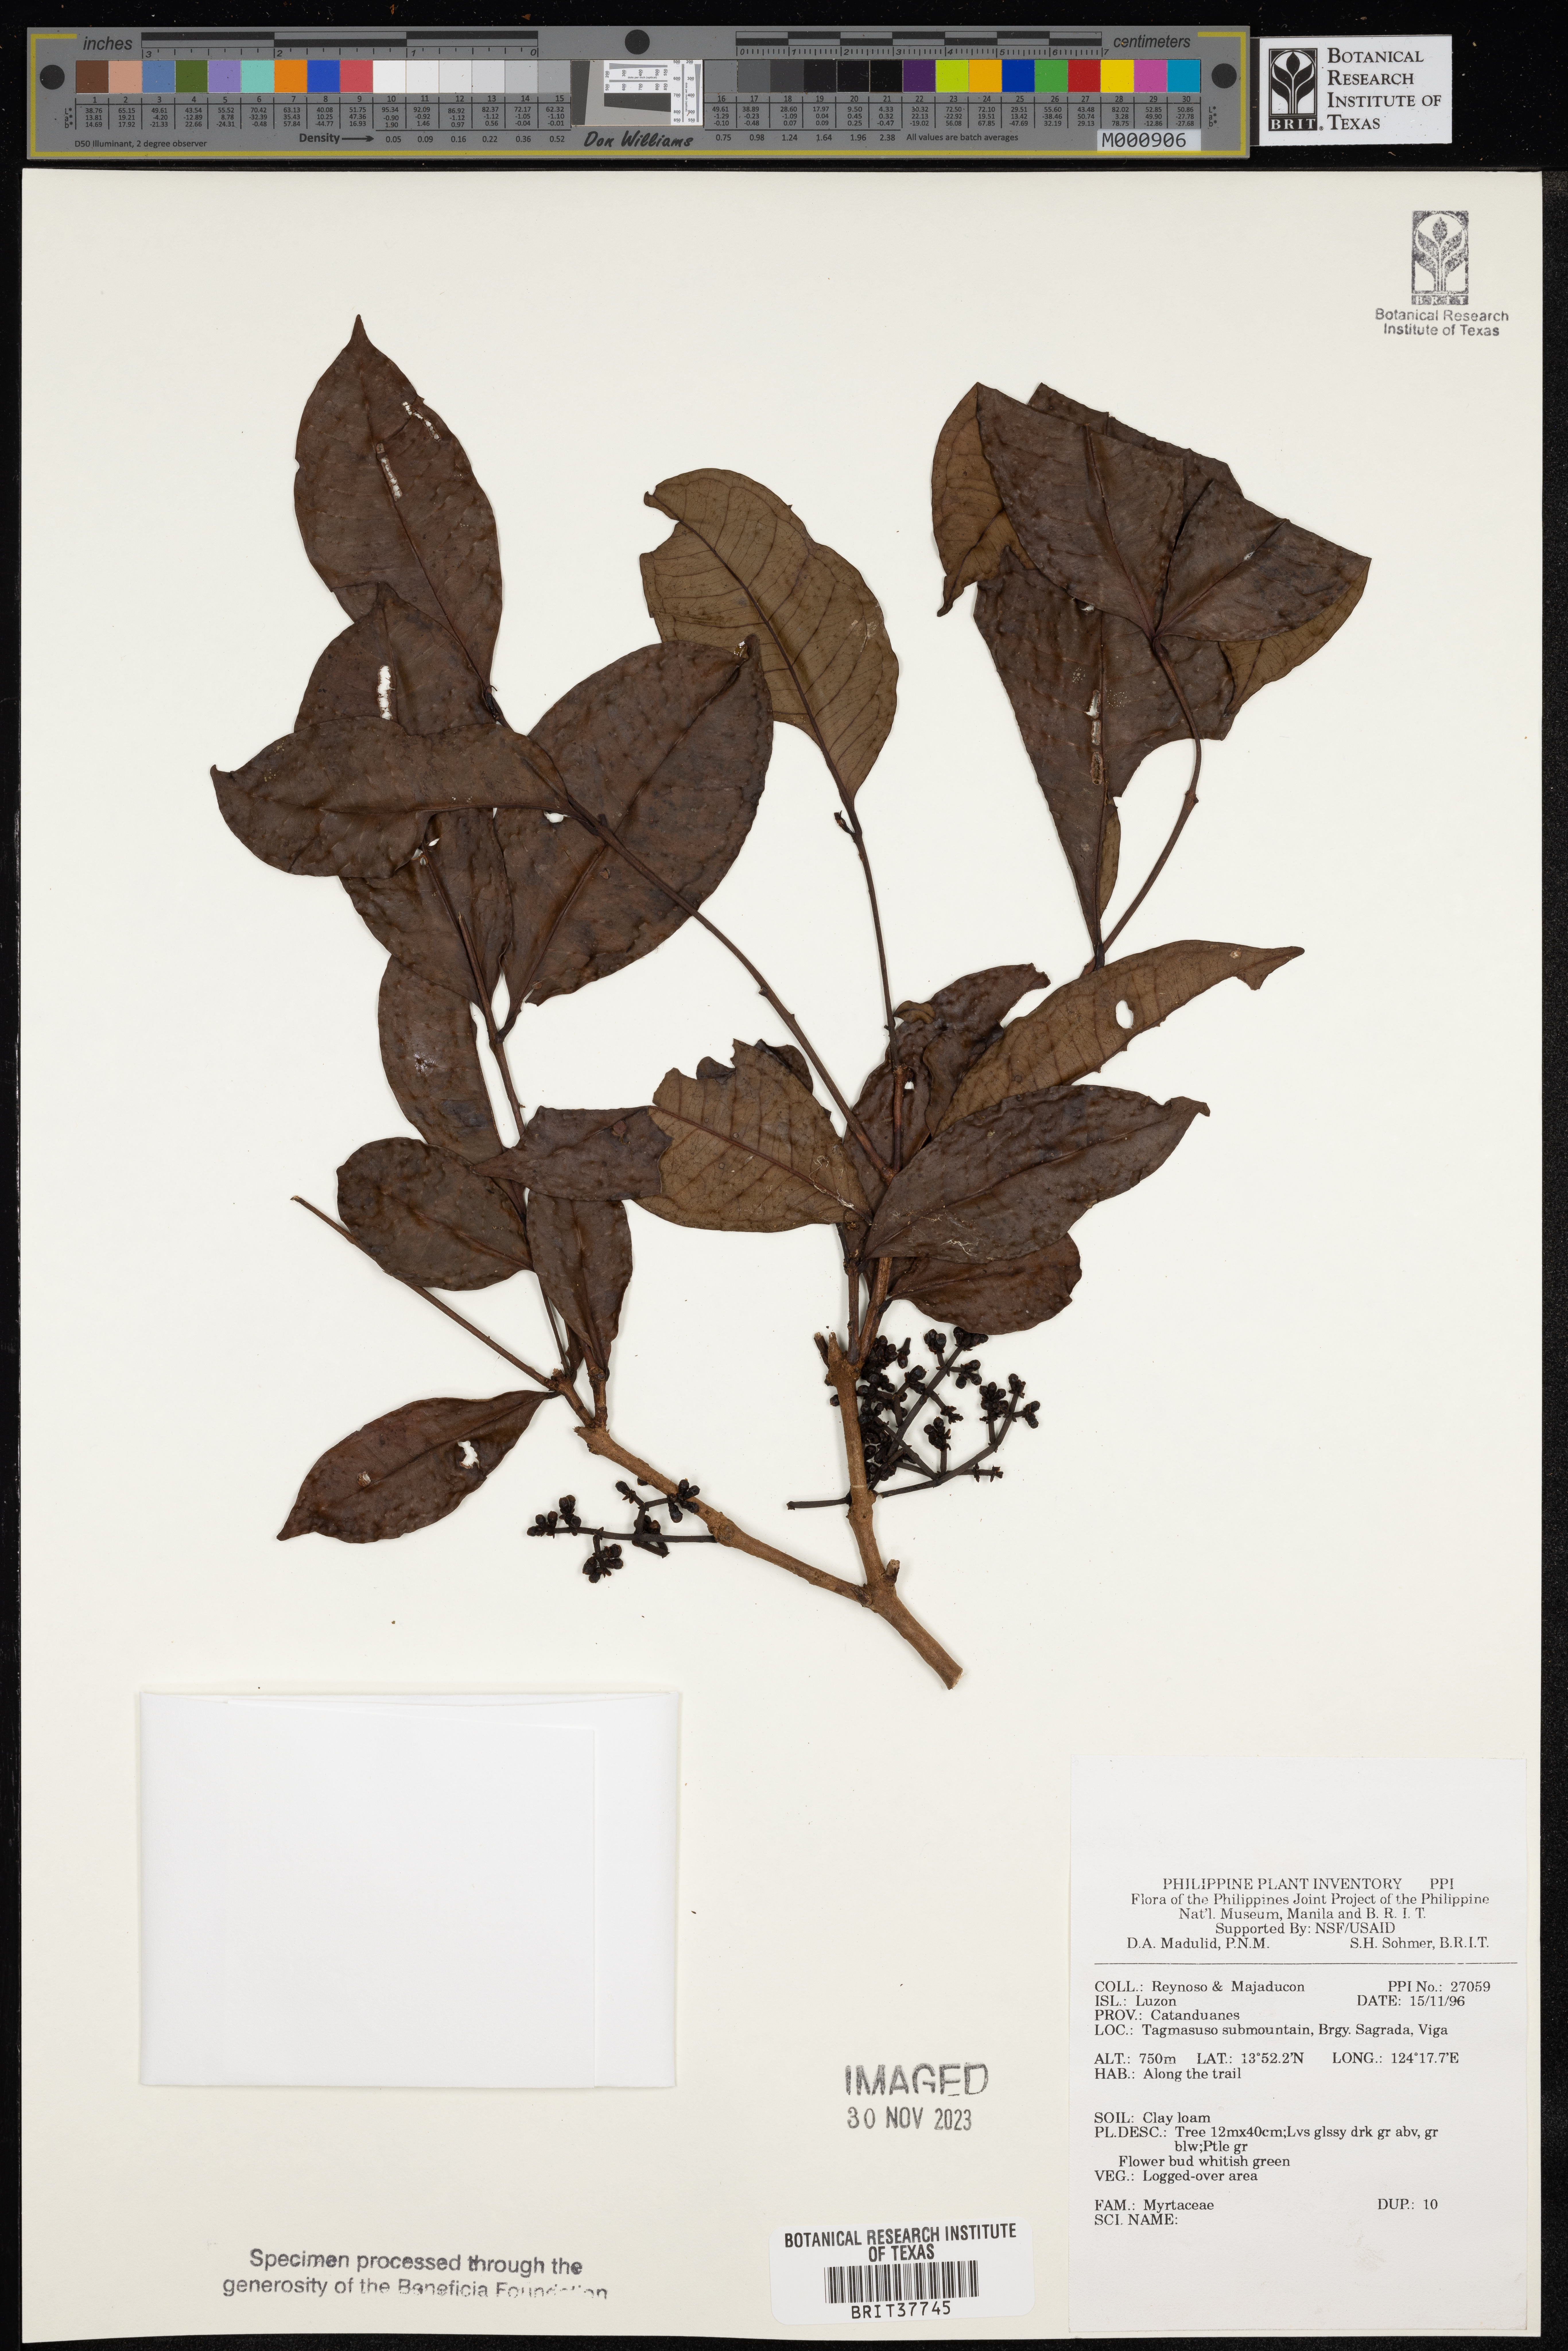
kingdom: Plantae
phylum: Tracheophyta
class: Magnoliopsida
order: Myrtales
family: Myrtaceae
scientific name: Myrtaceae
